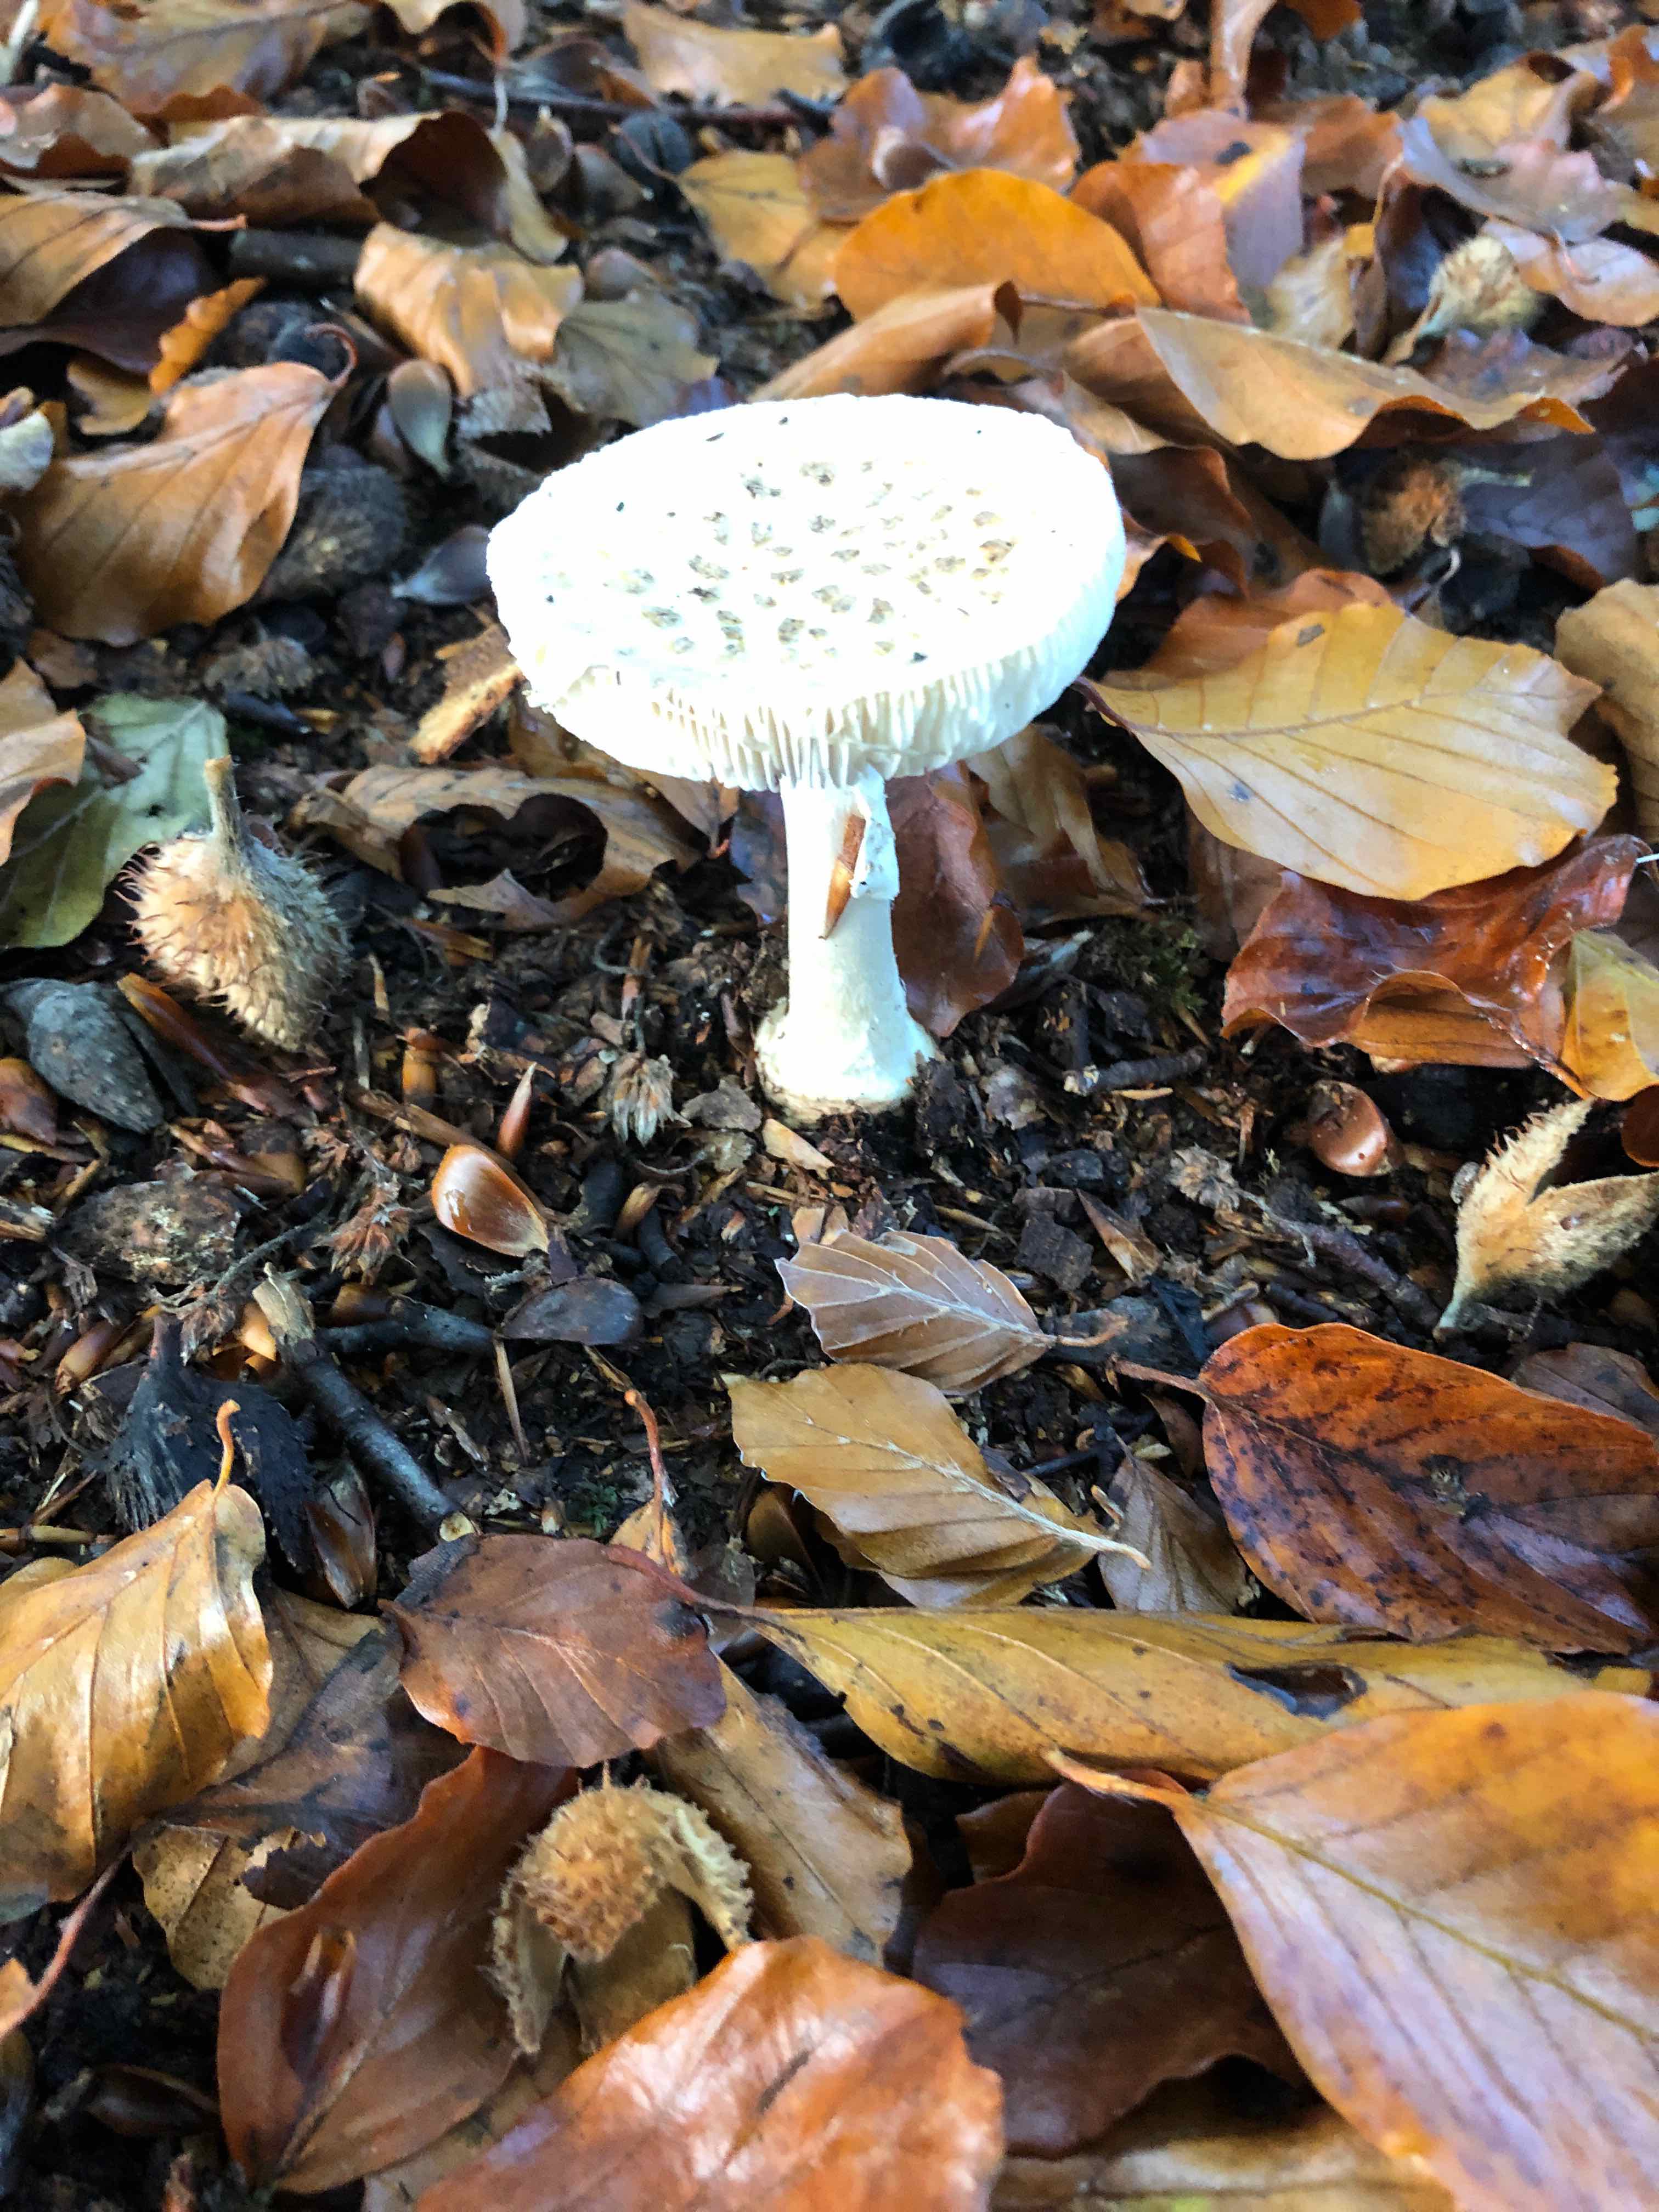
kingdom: Fungi
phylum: Basidiomycota
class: Agaricomycetes
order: Agaricales
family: Amanitaceae
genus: Amanita
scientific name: Amanita citrina
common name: kugleknoldet fluesvamp
